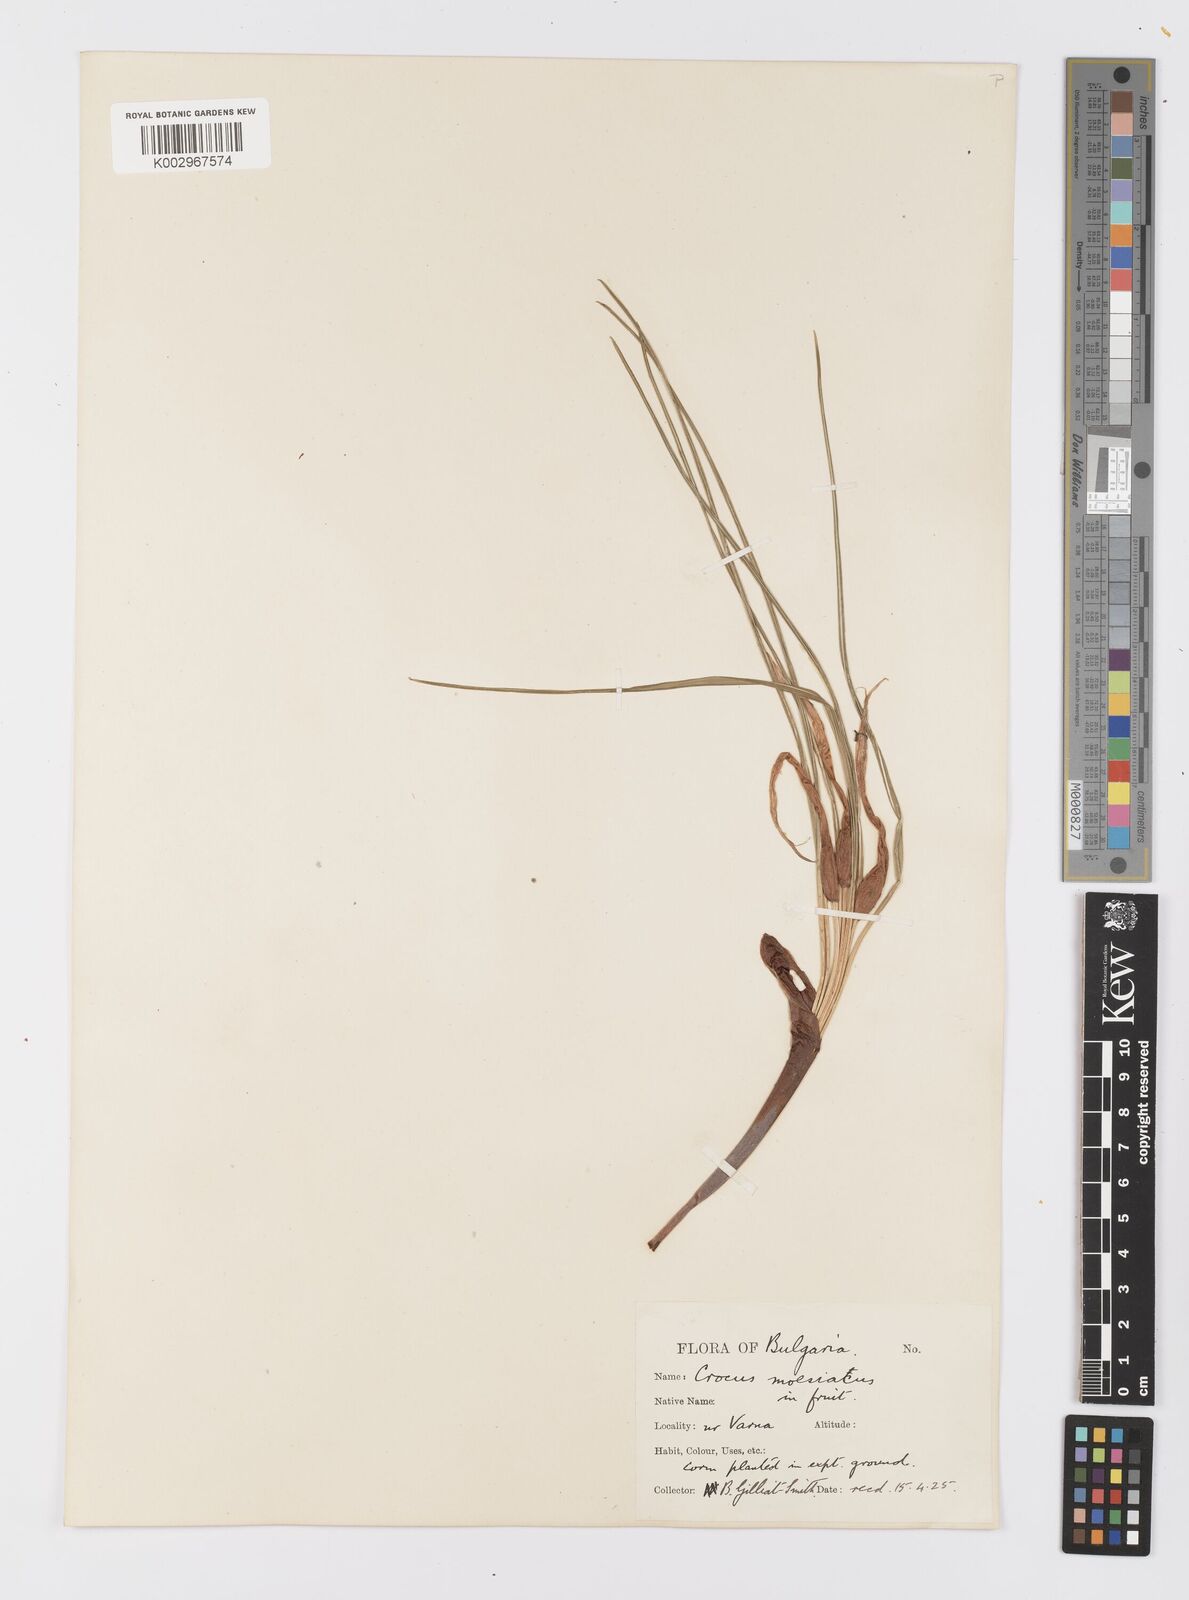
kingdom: Plantae
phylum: Tracheophyta
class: Liliopsida
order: Asparagales
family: Iridaceae
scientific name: Iridaceae
